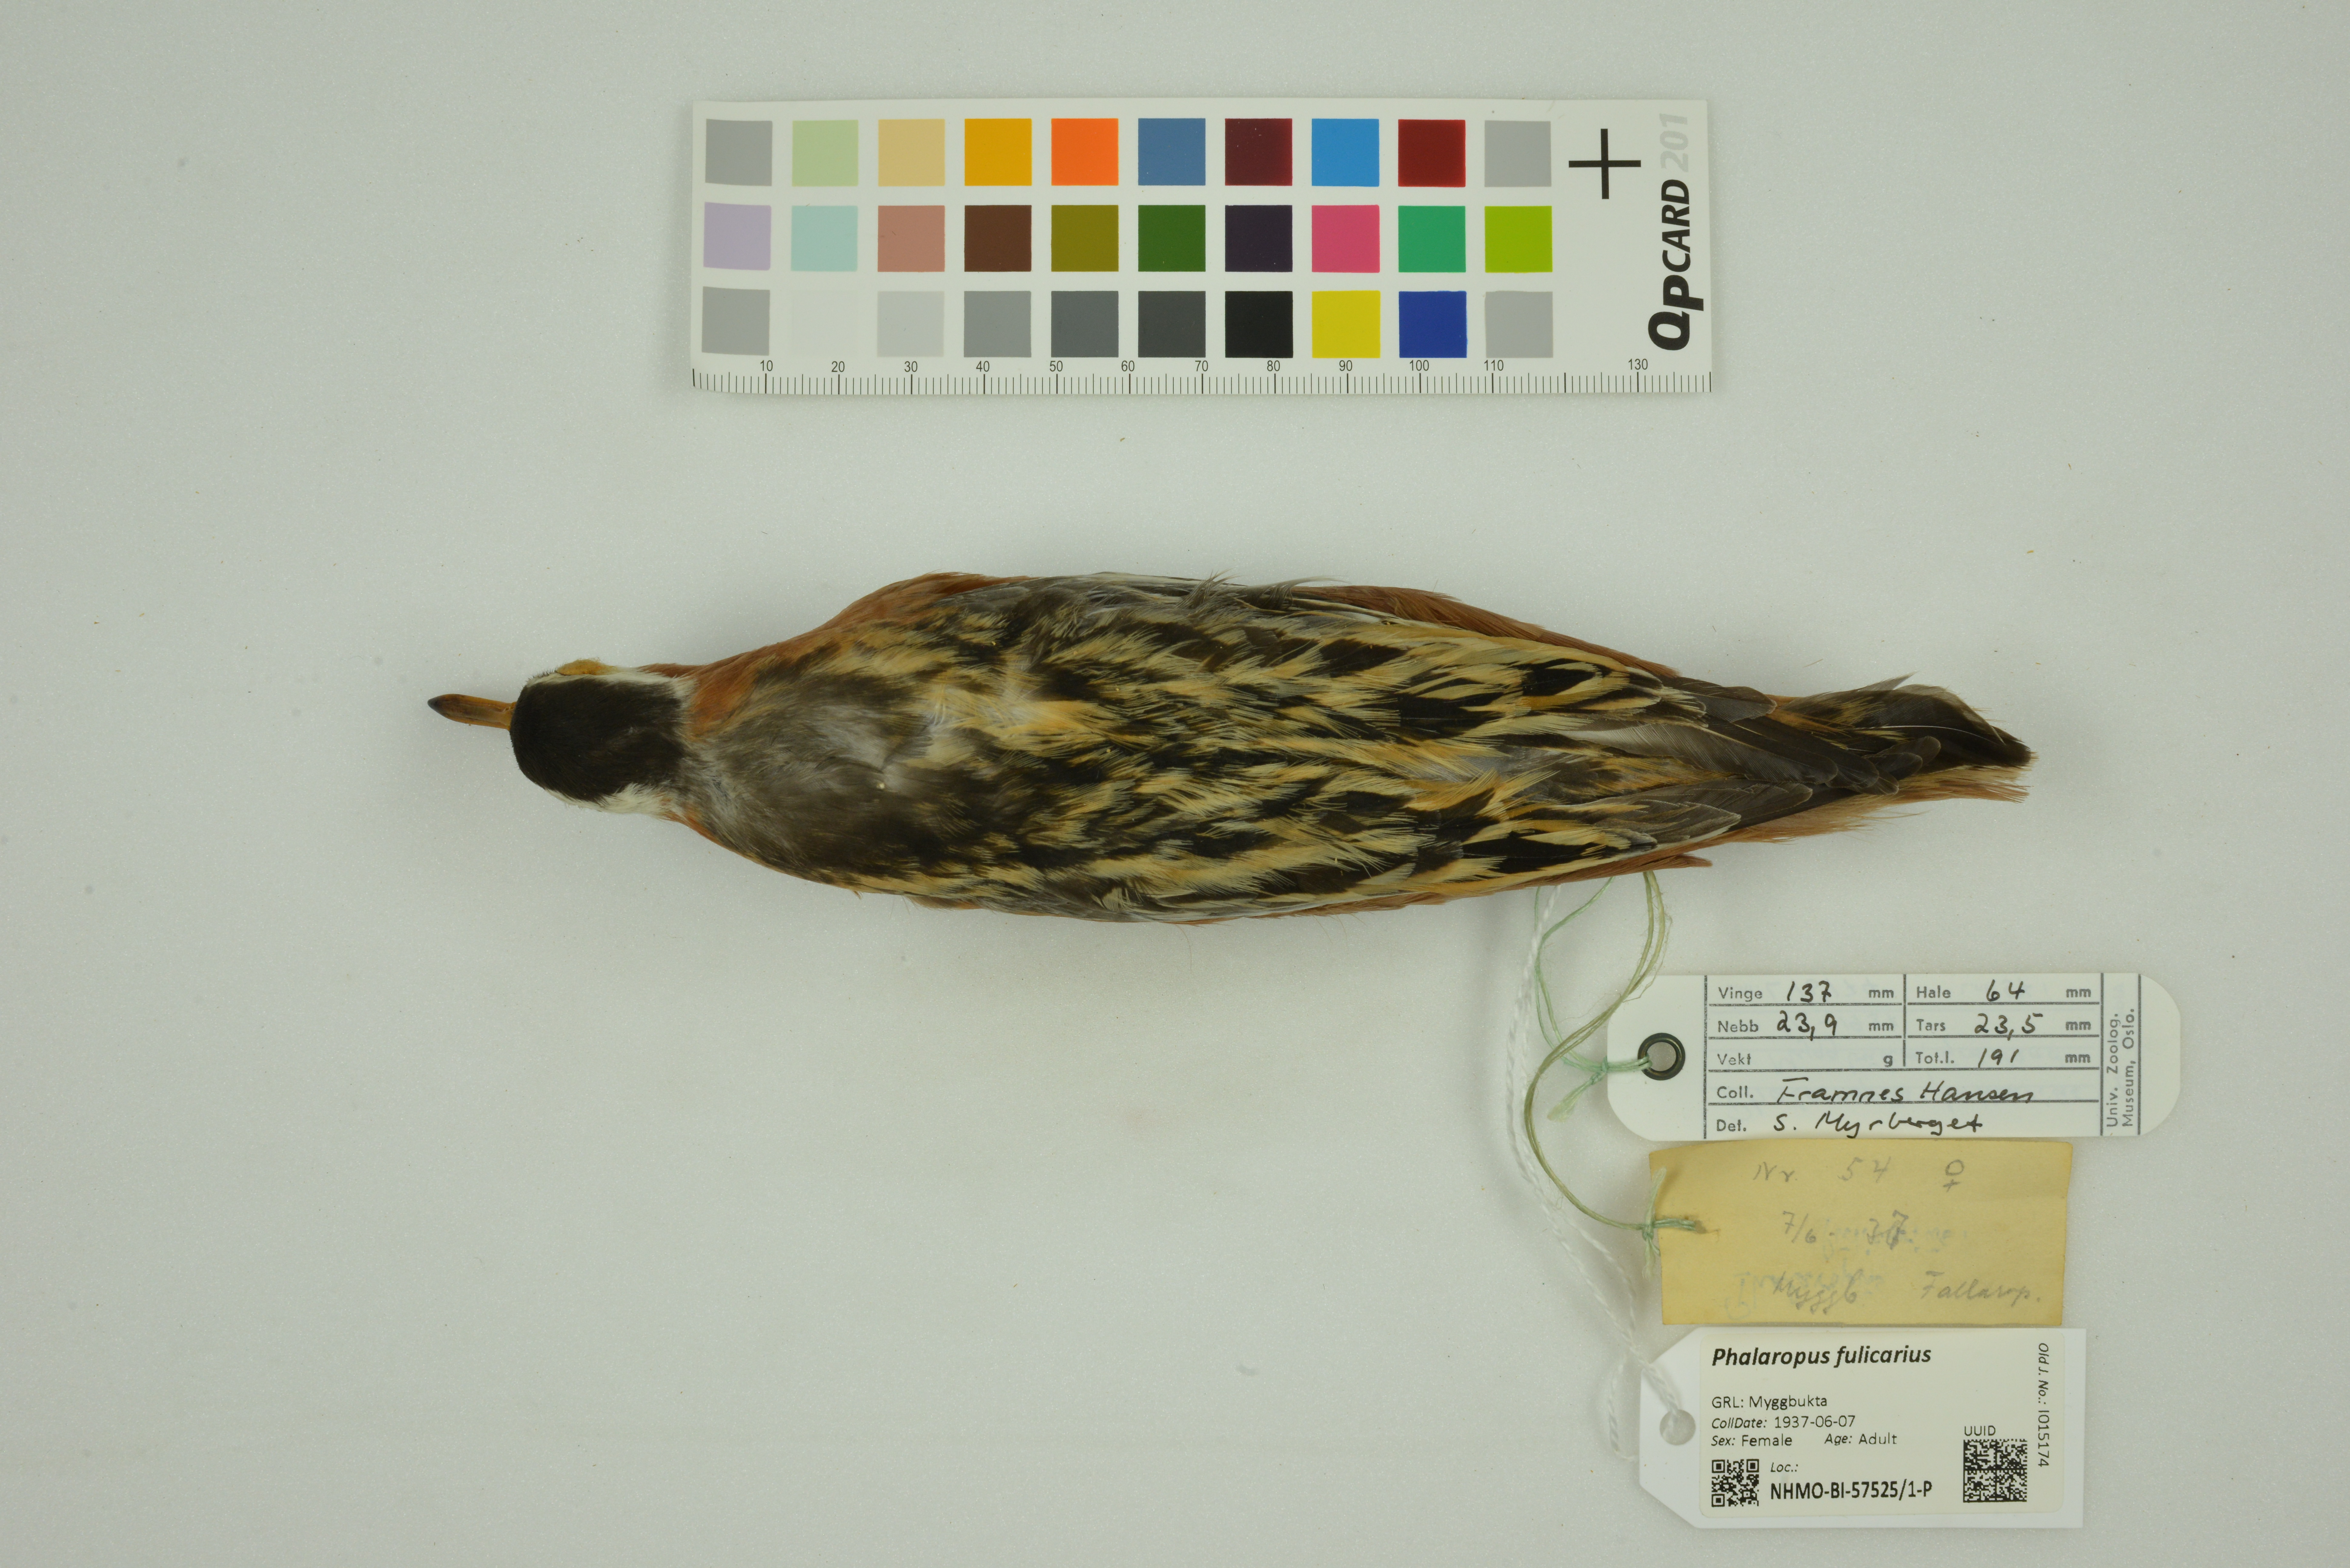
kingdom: Animalia
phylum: Chordata
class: Aves
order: Charadriiformes
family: Scolopacidae
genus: Phalaropus
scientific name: Phalaropus fulicarius
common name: Red phalarope
